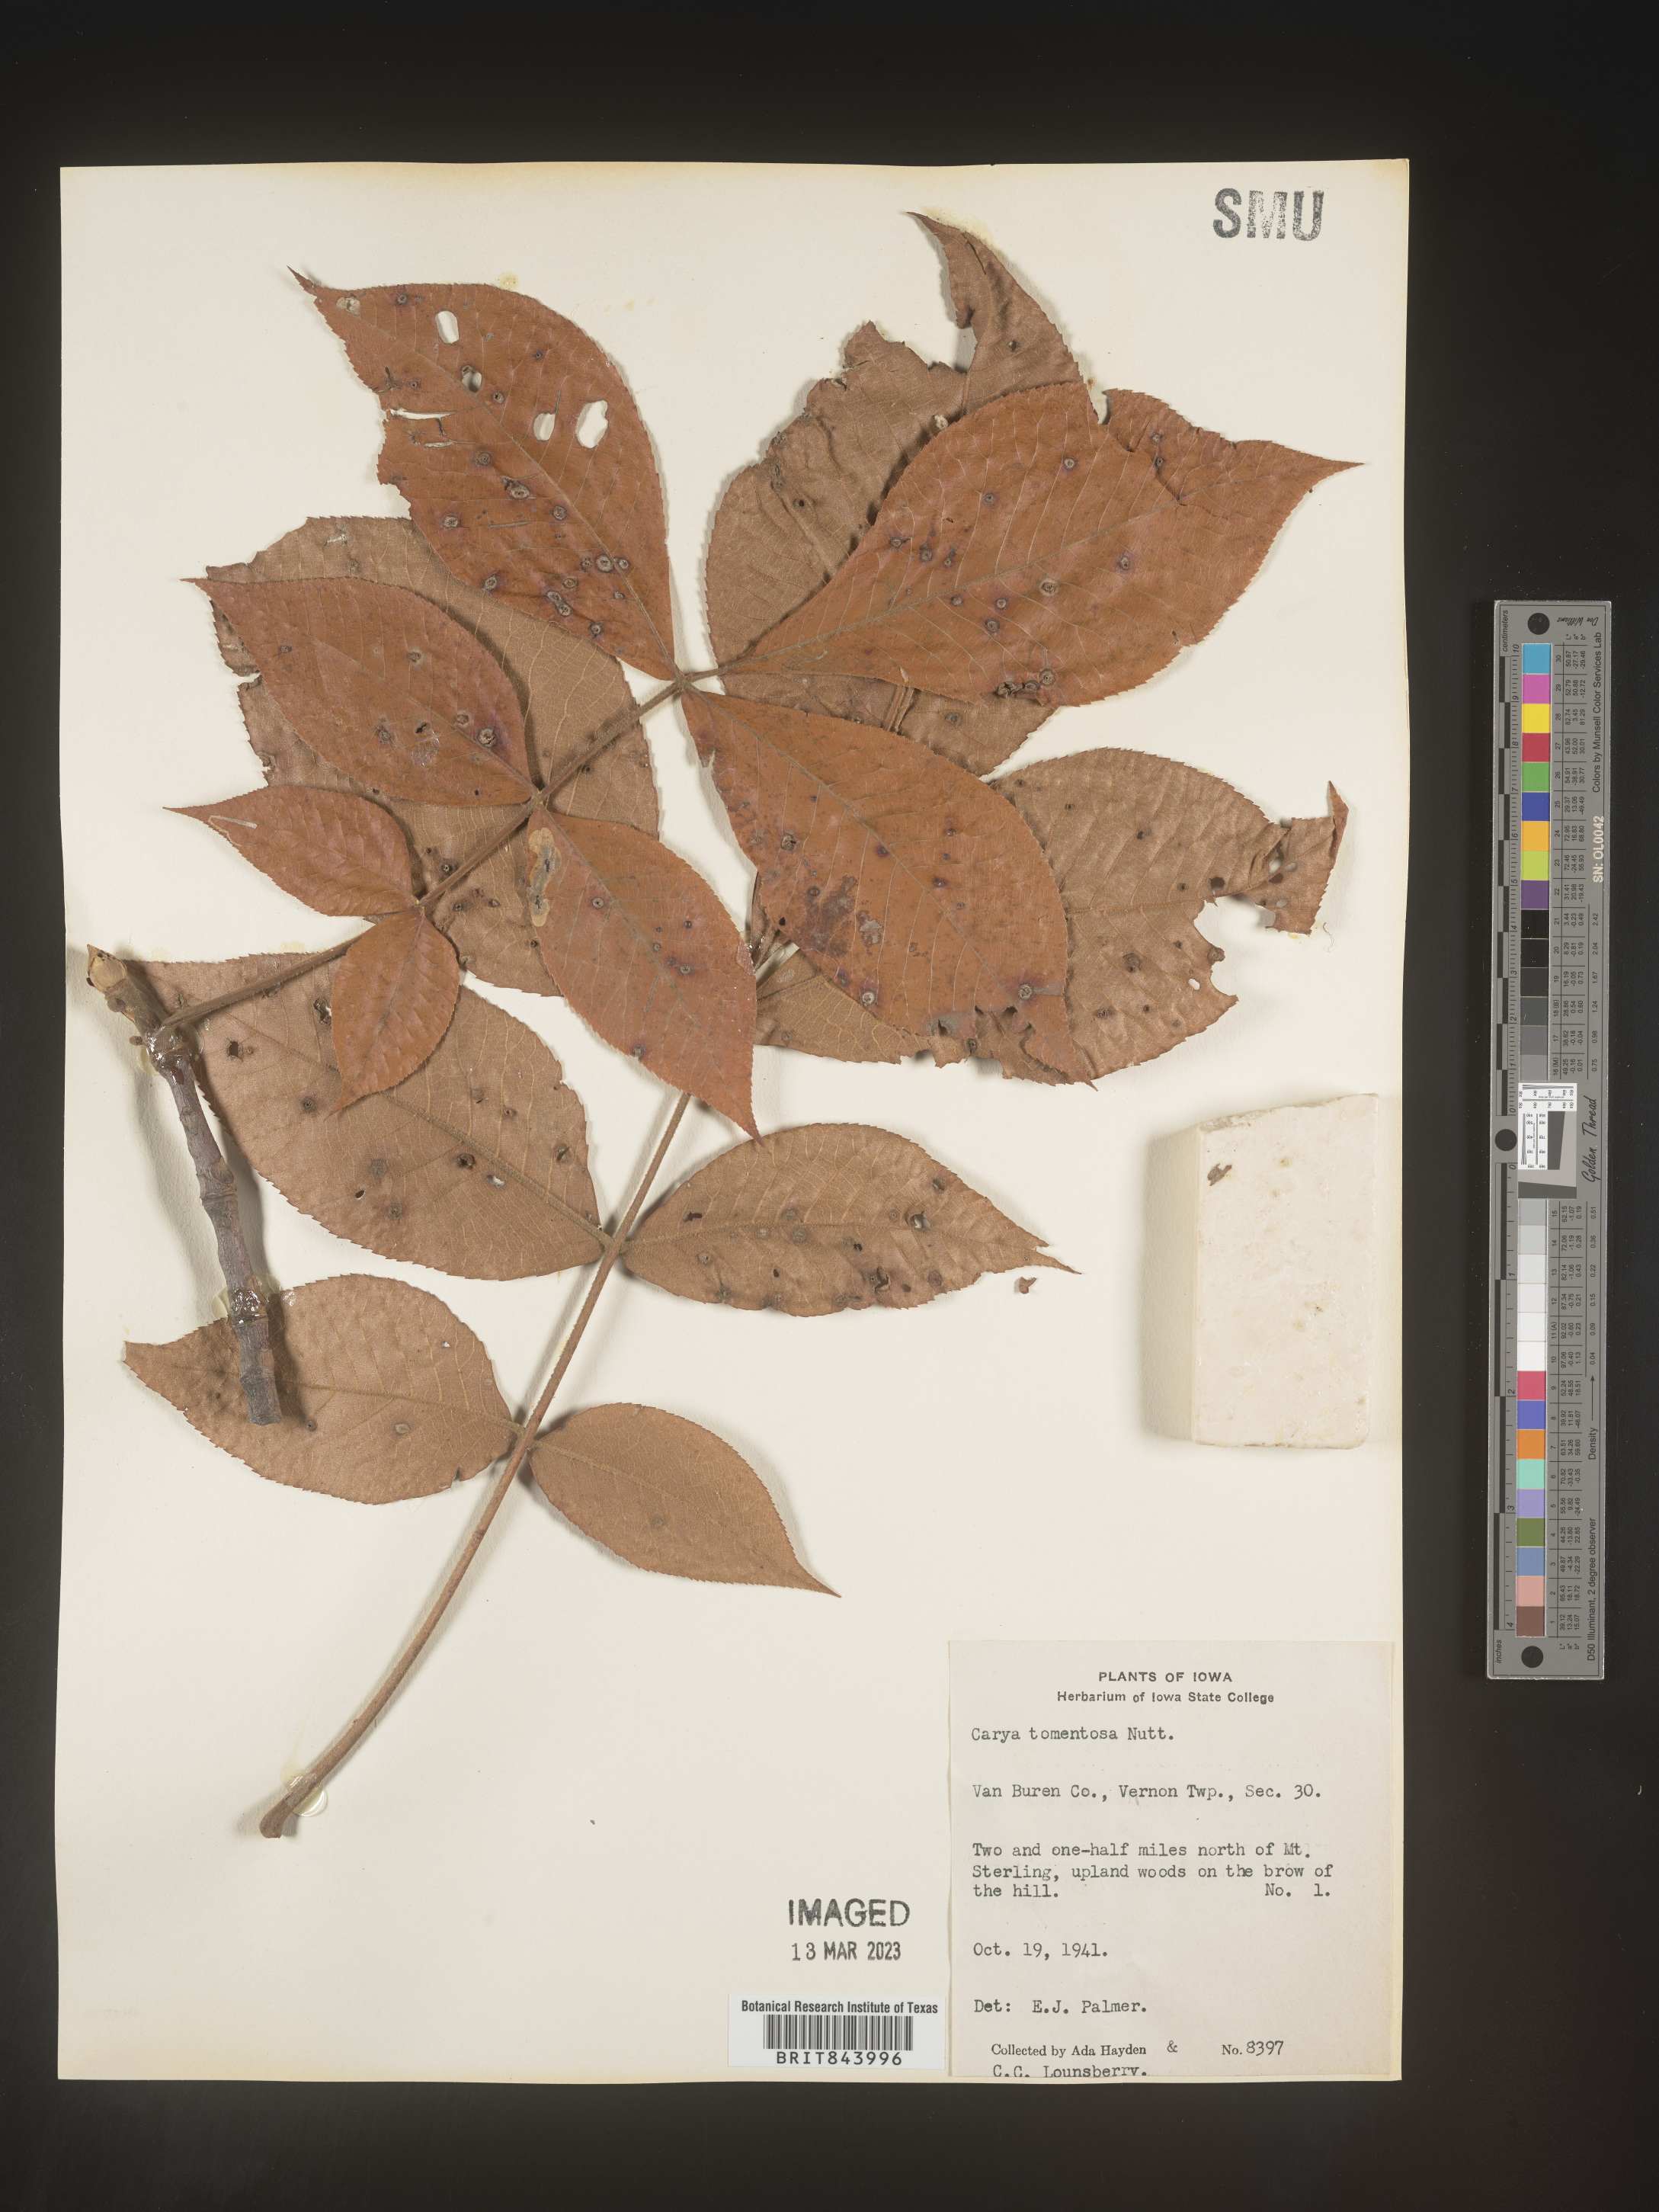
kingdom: Plantae
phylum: Tracheophyta
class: Magnoliopsida
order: Fagales
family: Juglandaceae
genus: Carya
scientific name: Carya alba
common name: Mockernut hickory
